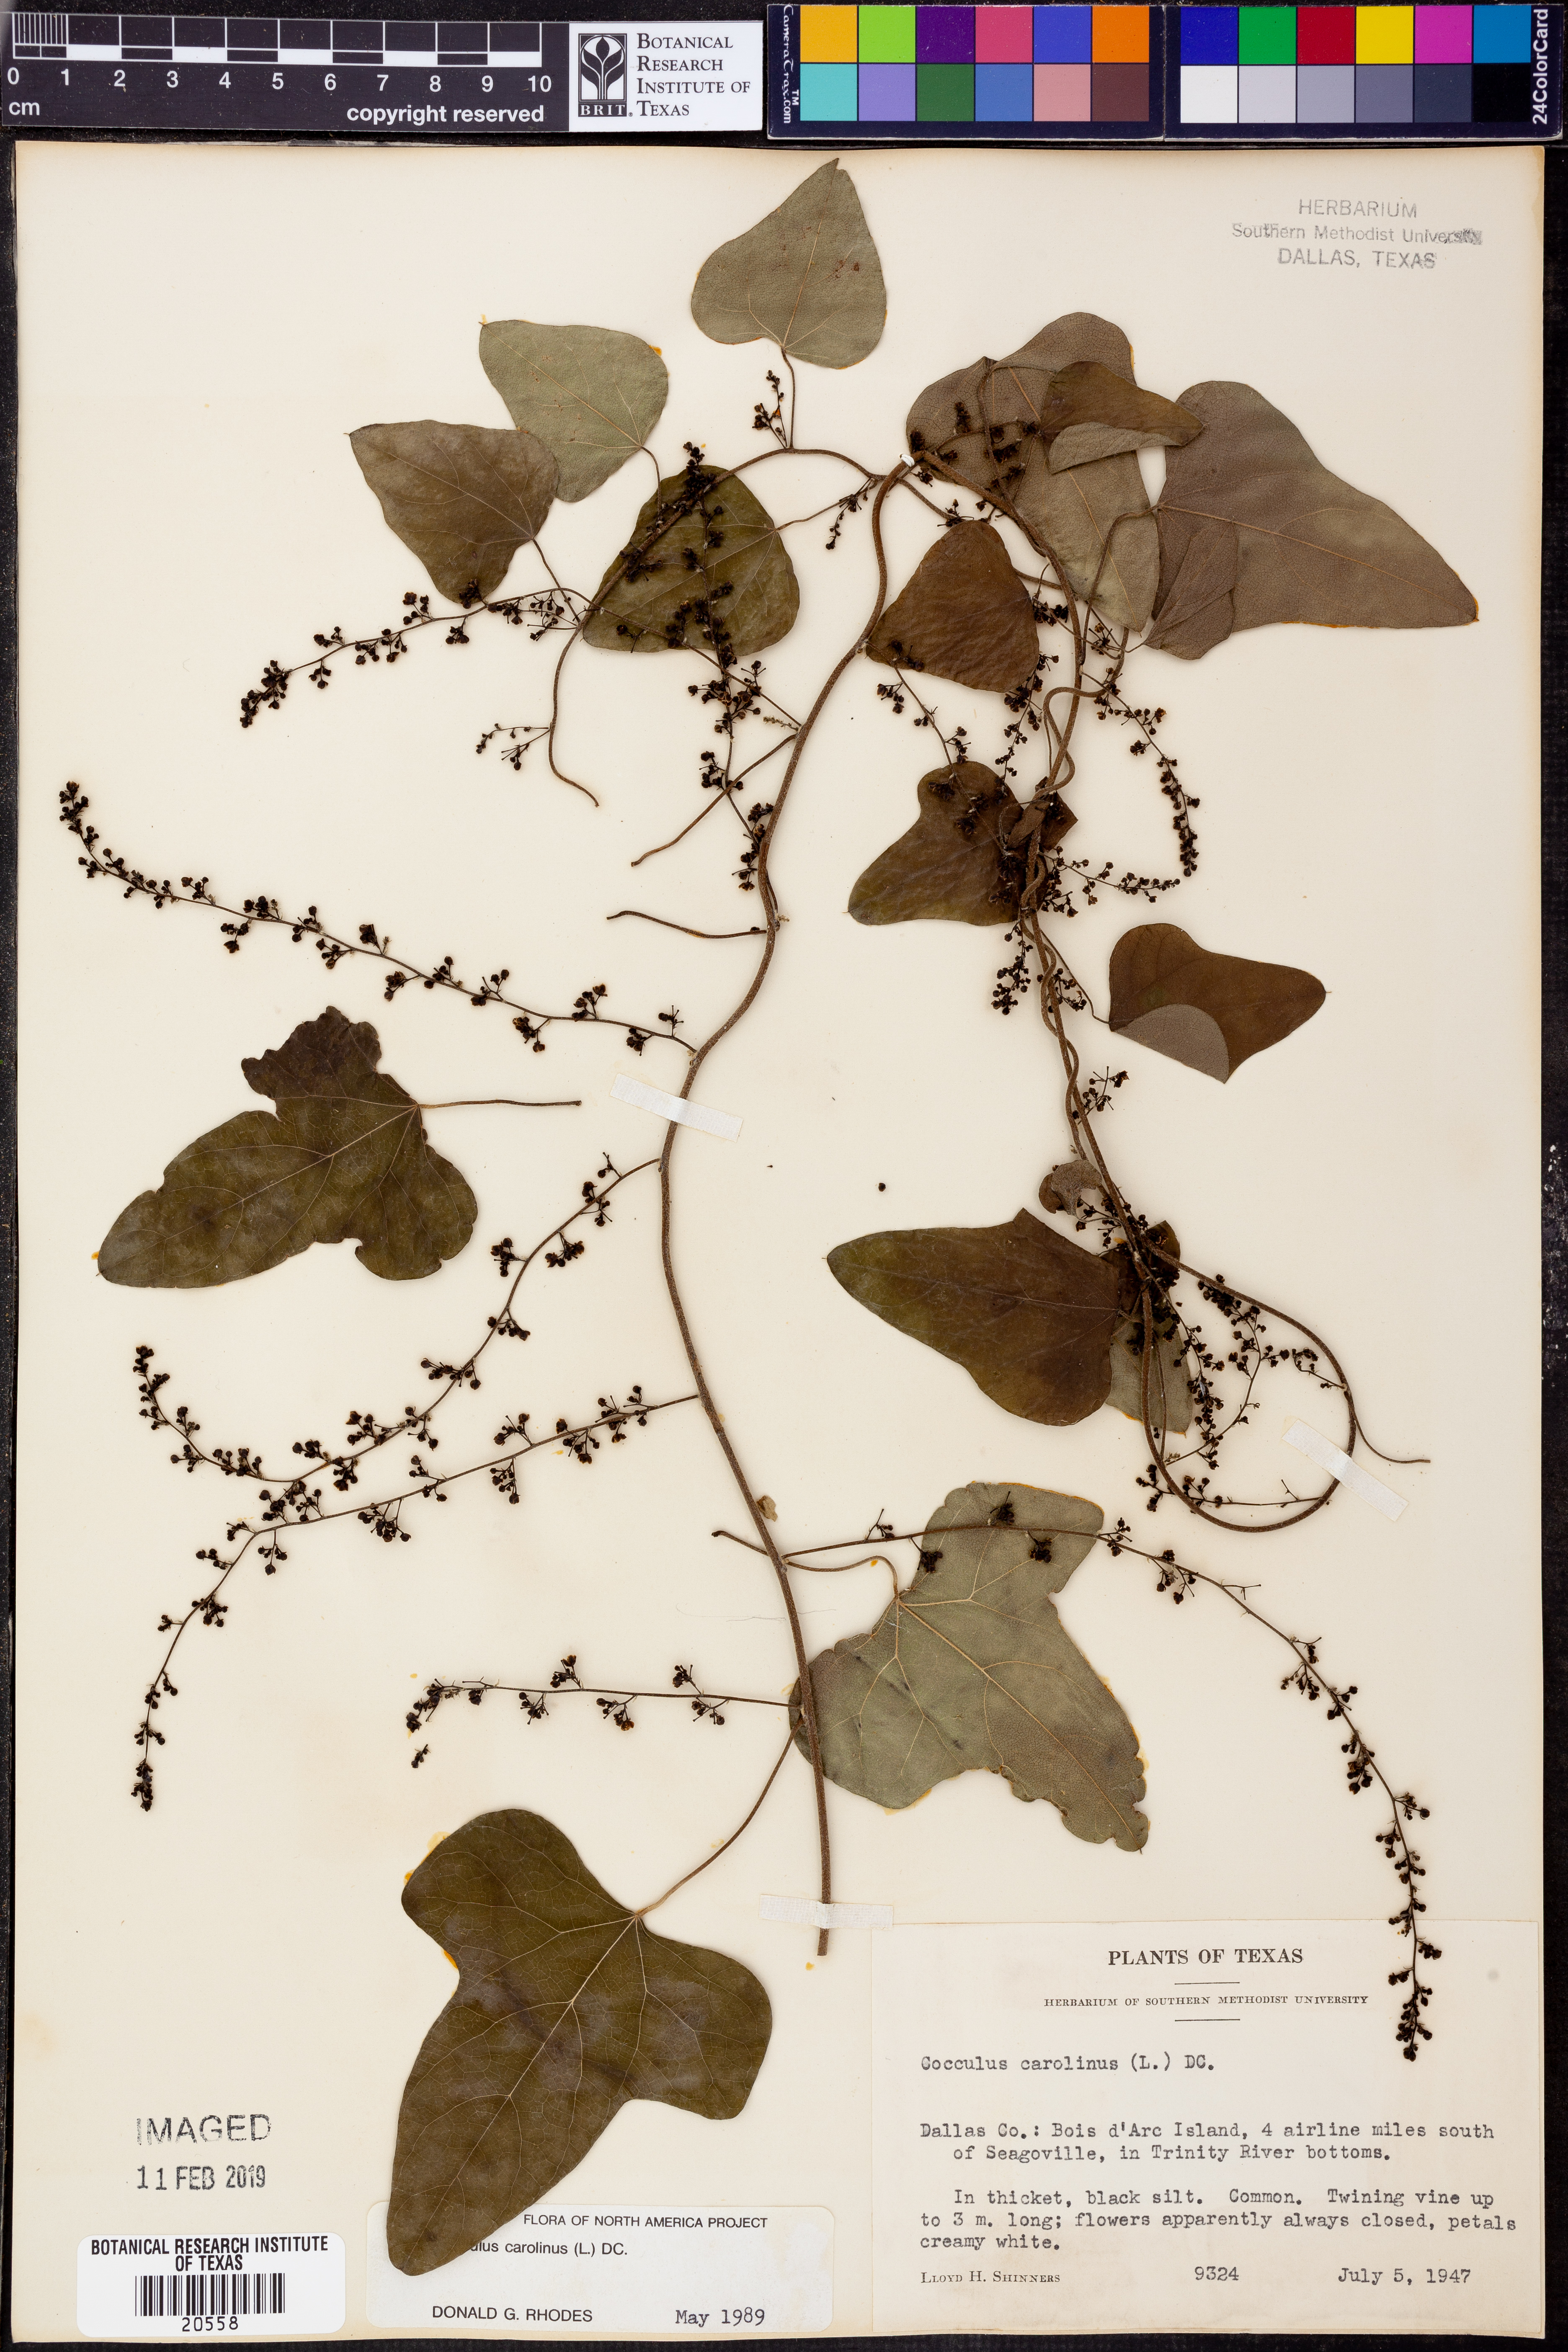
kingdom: Plantae
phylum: Tracheophyta
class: Magnoliopsida
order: Ranunculales
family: Menispermaceae
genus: Cocculus
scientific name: Cocculus carolinus
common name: Carolina moonseed
